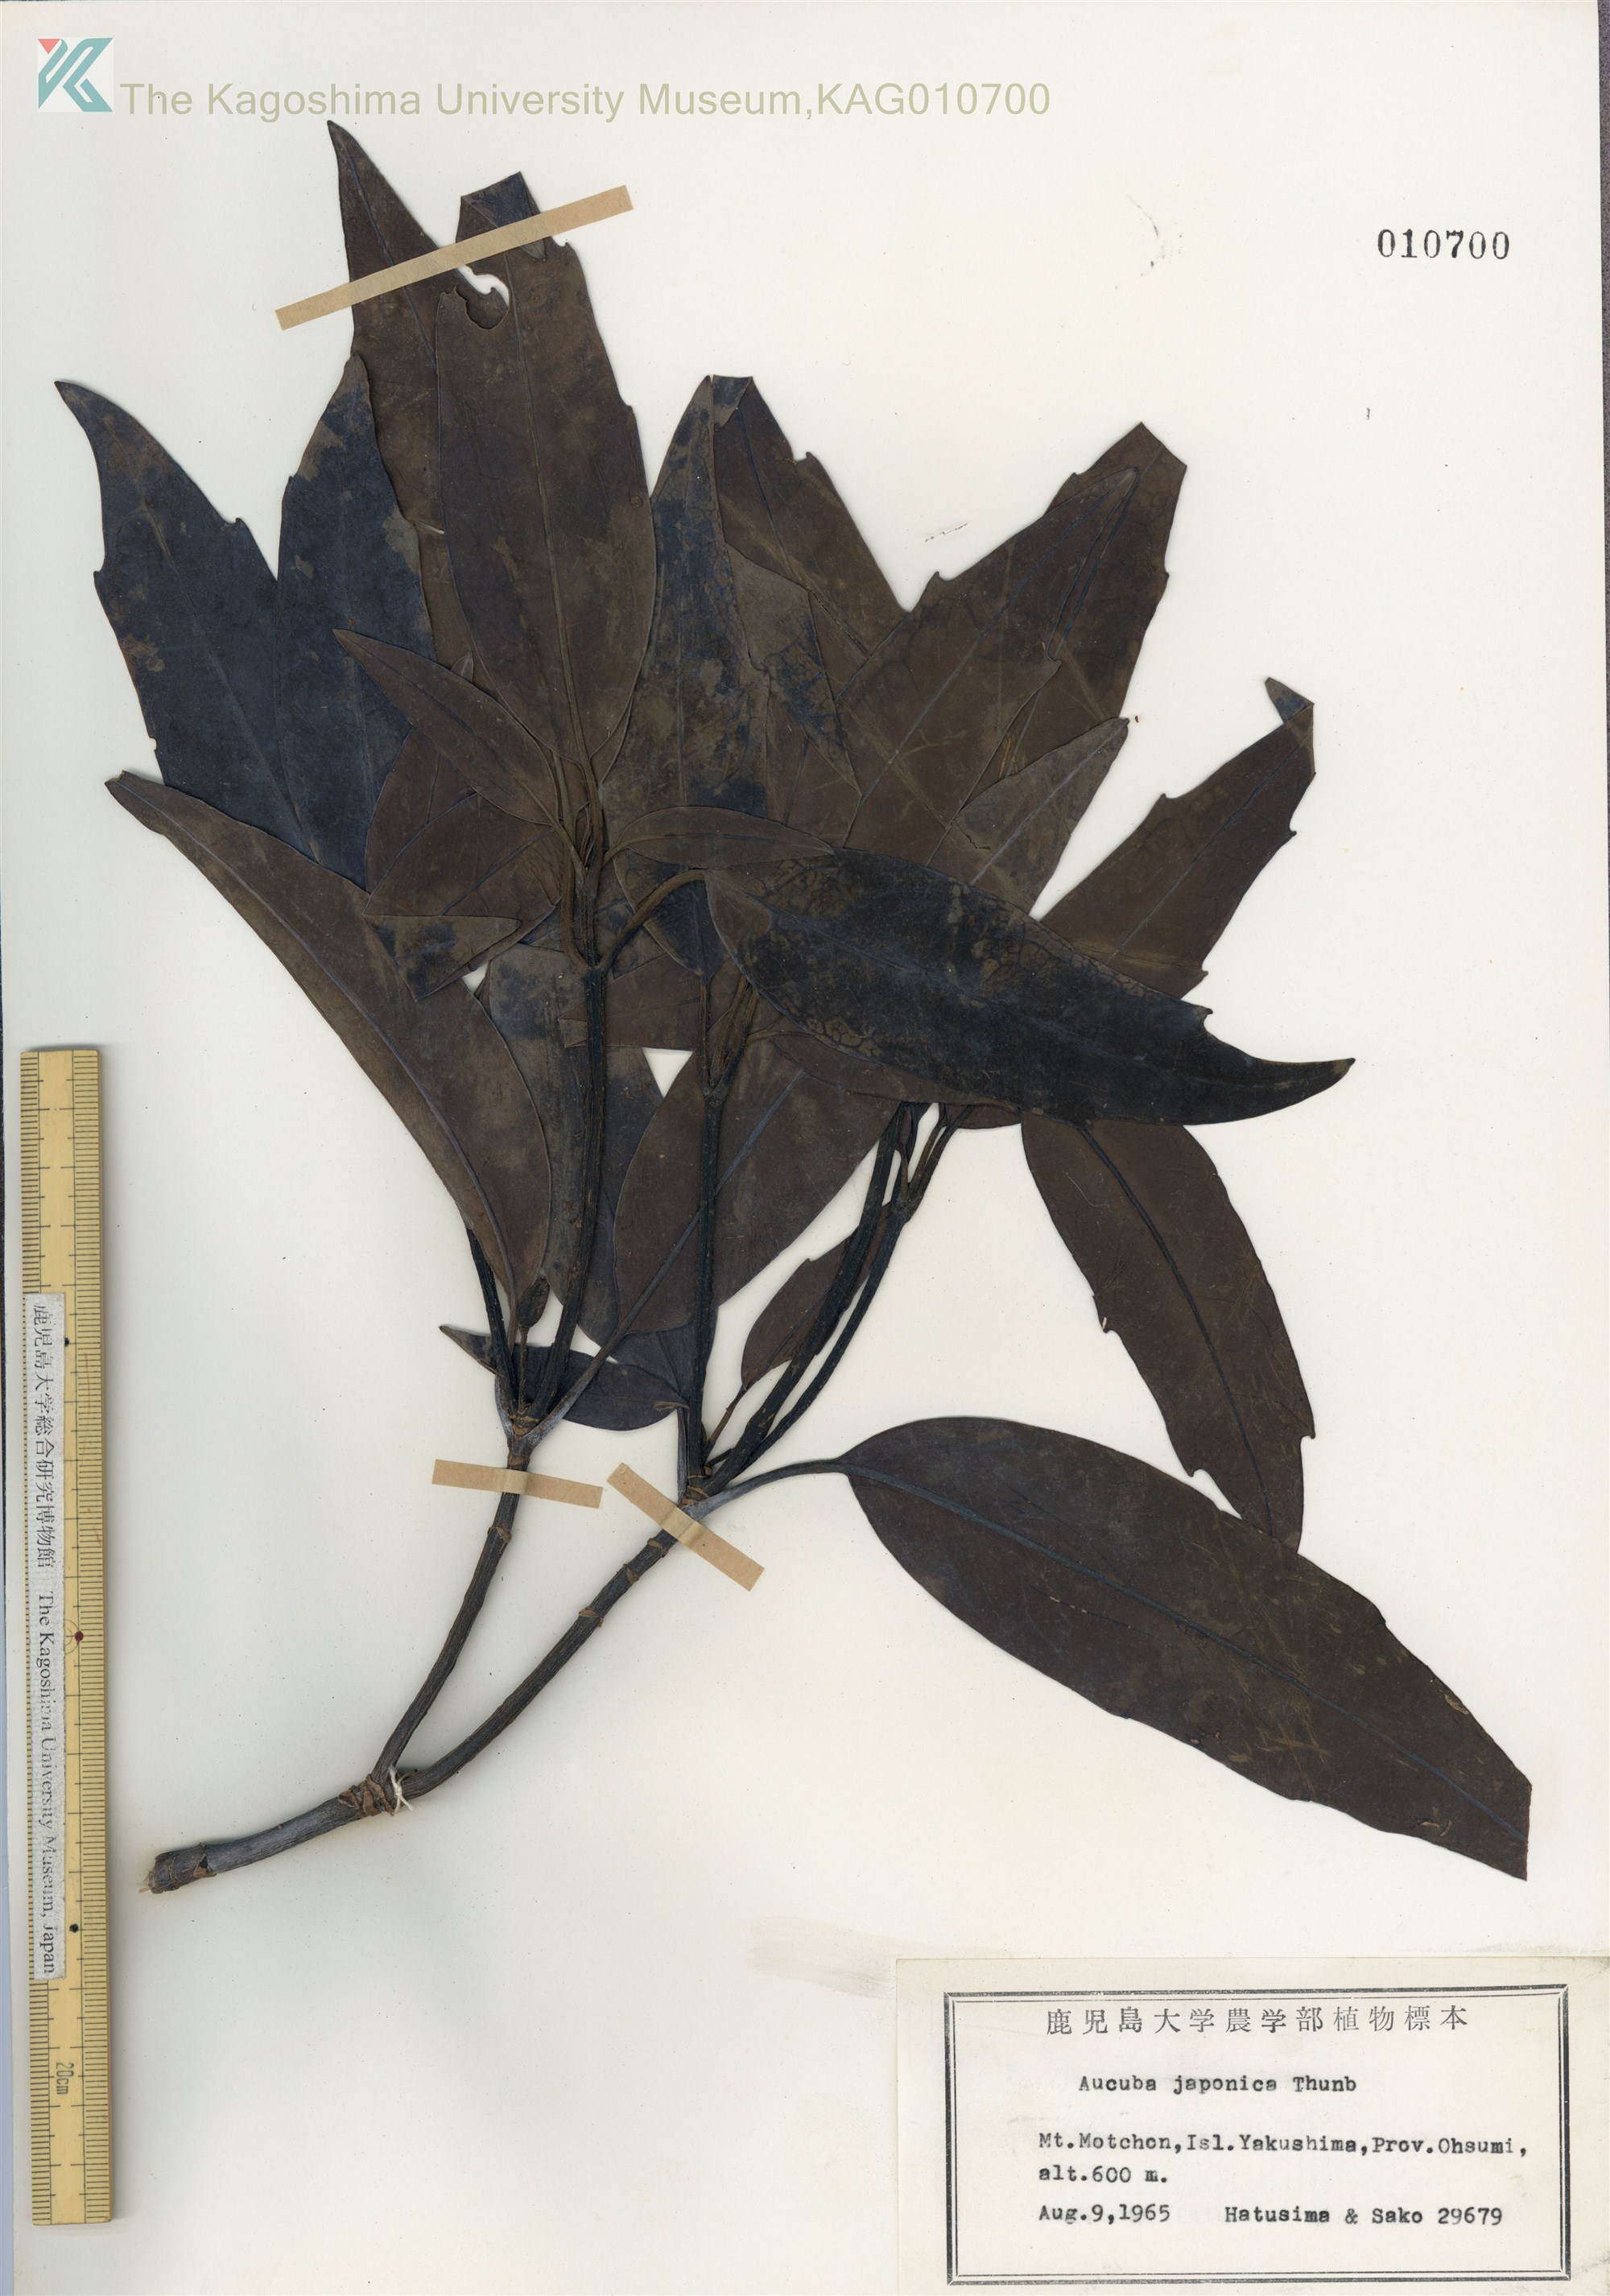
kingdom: Plantae
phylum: Tracheophyta
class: Magnoliopsida
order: Garryales
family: Garryaceae
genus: Aucuba
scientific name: Aucuba japonica
